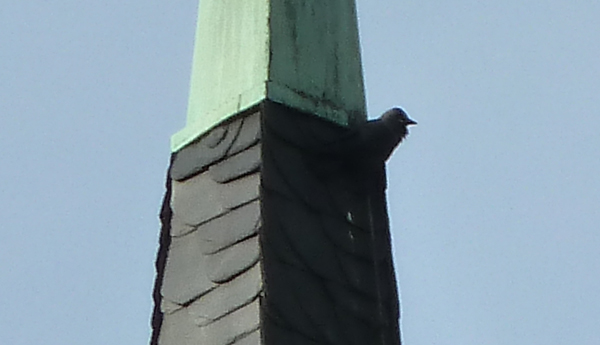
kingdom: Animalia
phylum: Chordata
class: Aves
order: Passeriformes
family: Corvidae
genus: Coloeus
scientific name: Coloeus monedula
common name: Western jackdaw
